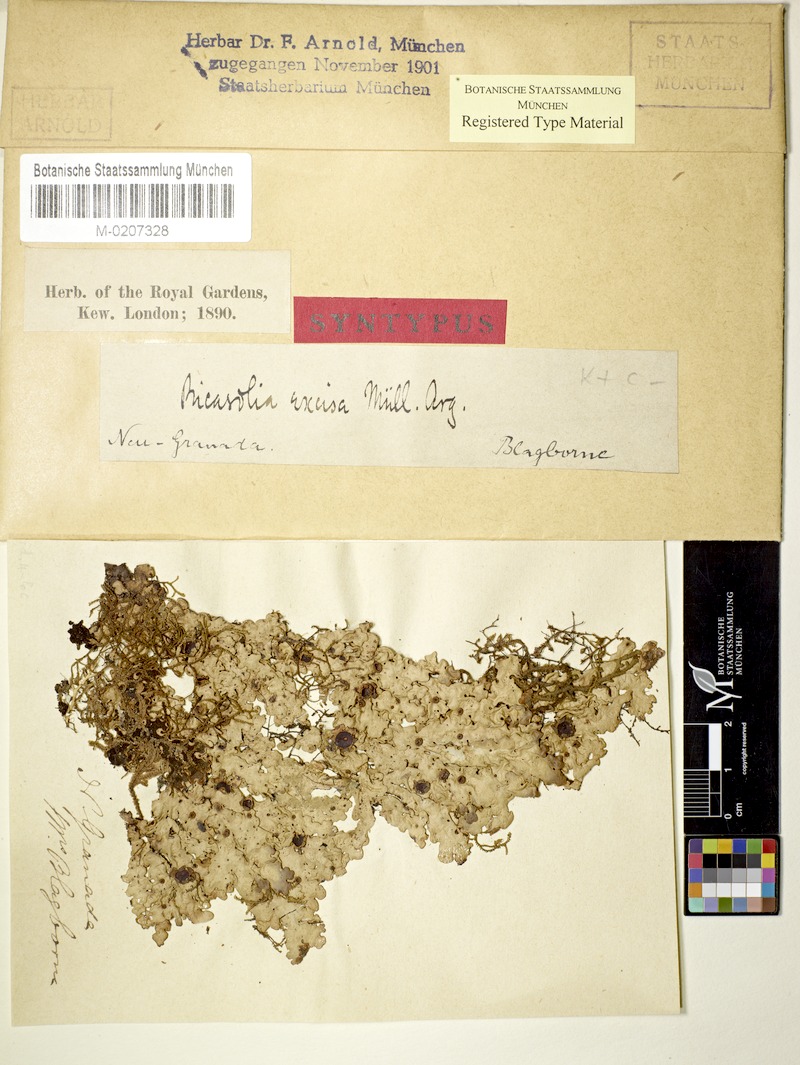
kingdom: Fungi
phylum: Ascomycota
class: Lecanoromycetes
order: Peltigerales
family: Peltigeraceae
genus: Emmanuelia
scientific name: Emmanuelia excisa
